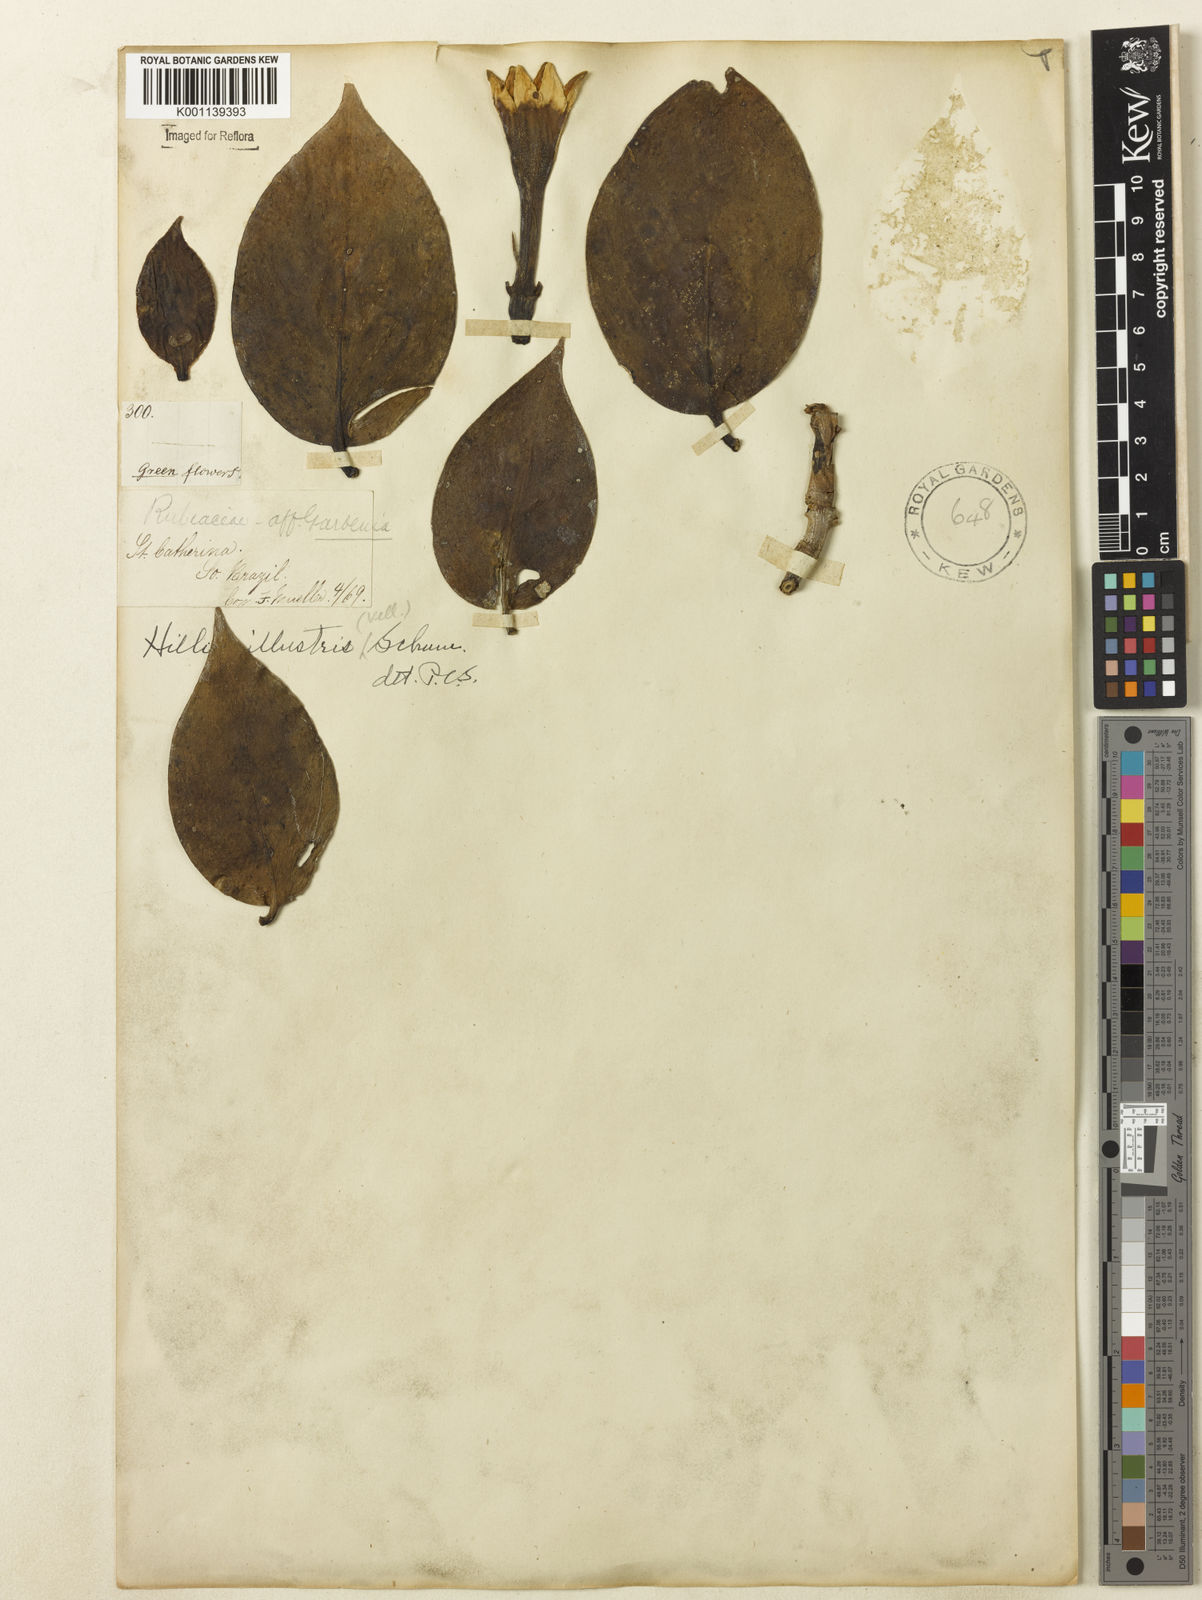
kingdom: Plantae
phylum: Tracheophyta
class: Magnoliopsida
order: Gentianales
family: Rubiaceae
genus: Hillia
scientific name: Hillia illustris
